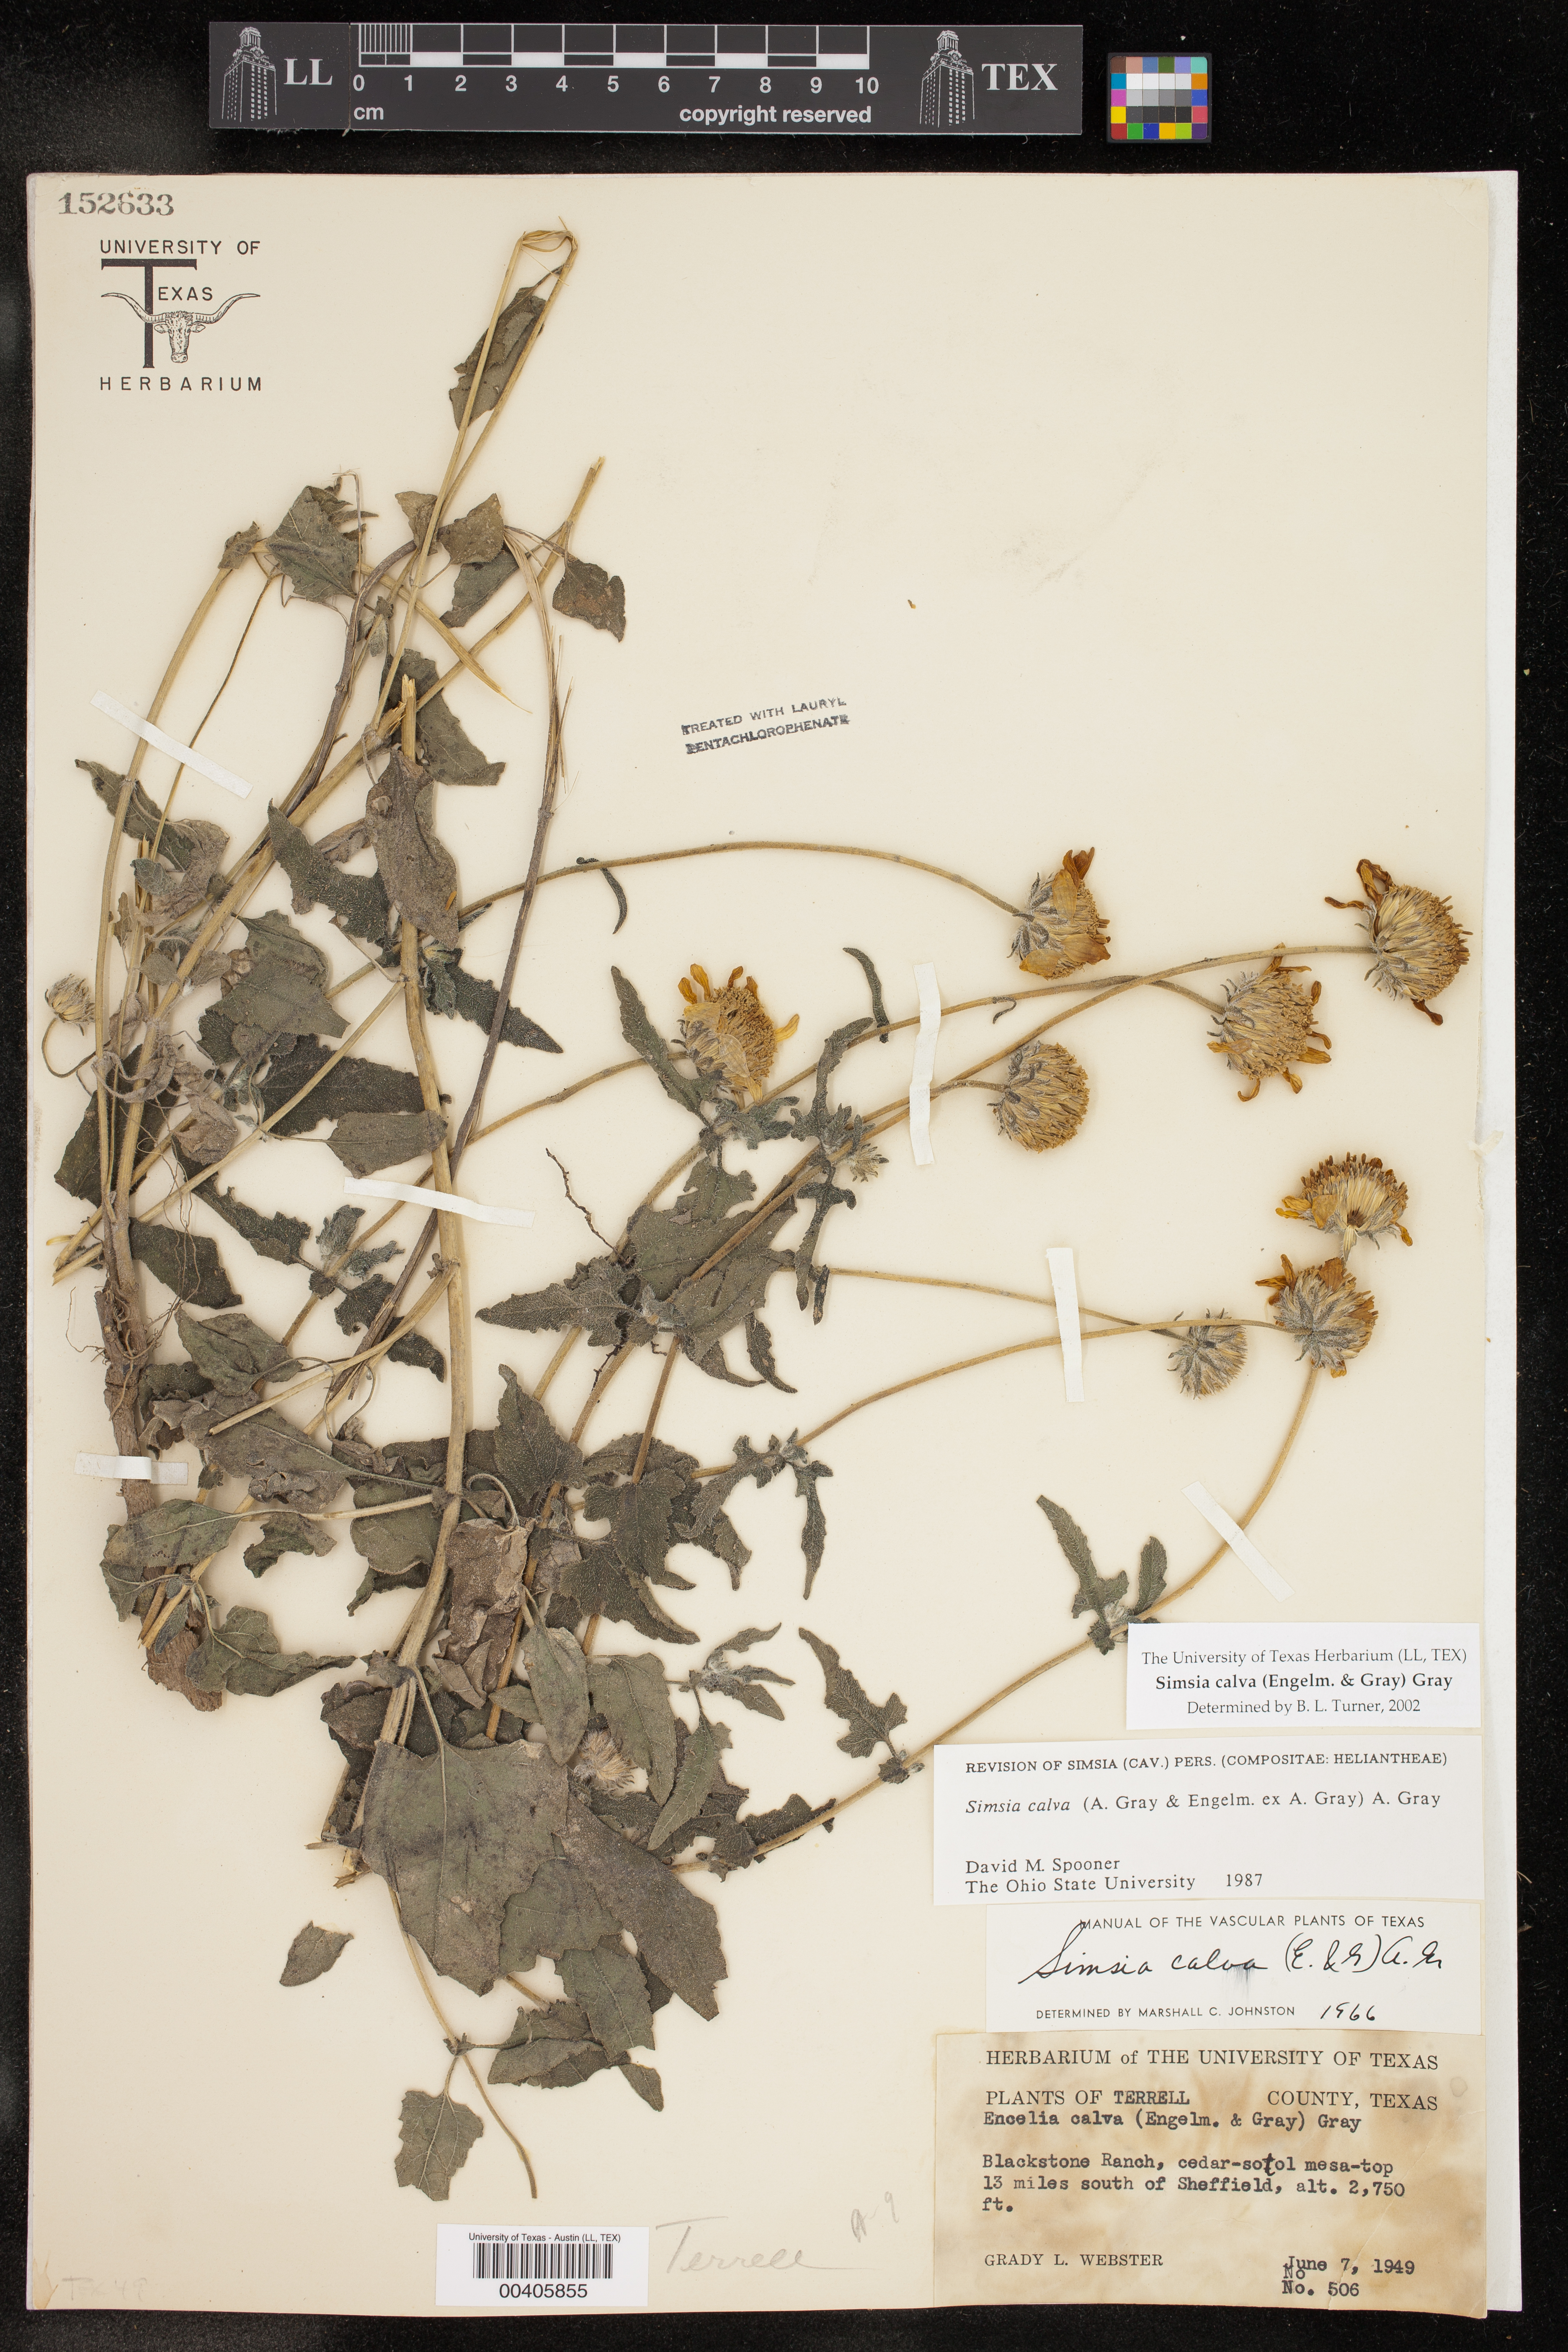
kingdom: Plantae
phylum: Tracheophyta
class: Magnoliopsida
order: Asterales
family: Asteraceae
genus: Simsia
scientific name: Simsia calva
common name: Awnless bush-sunflower
